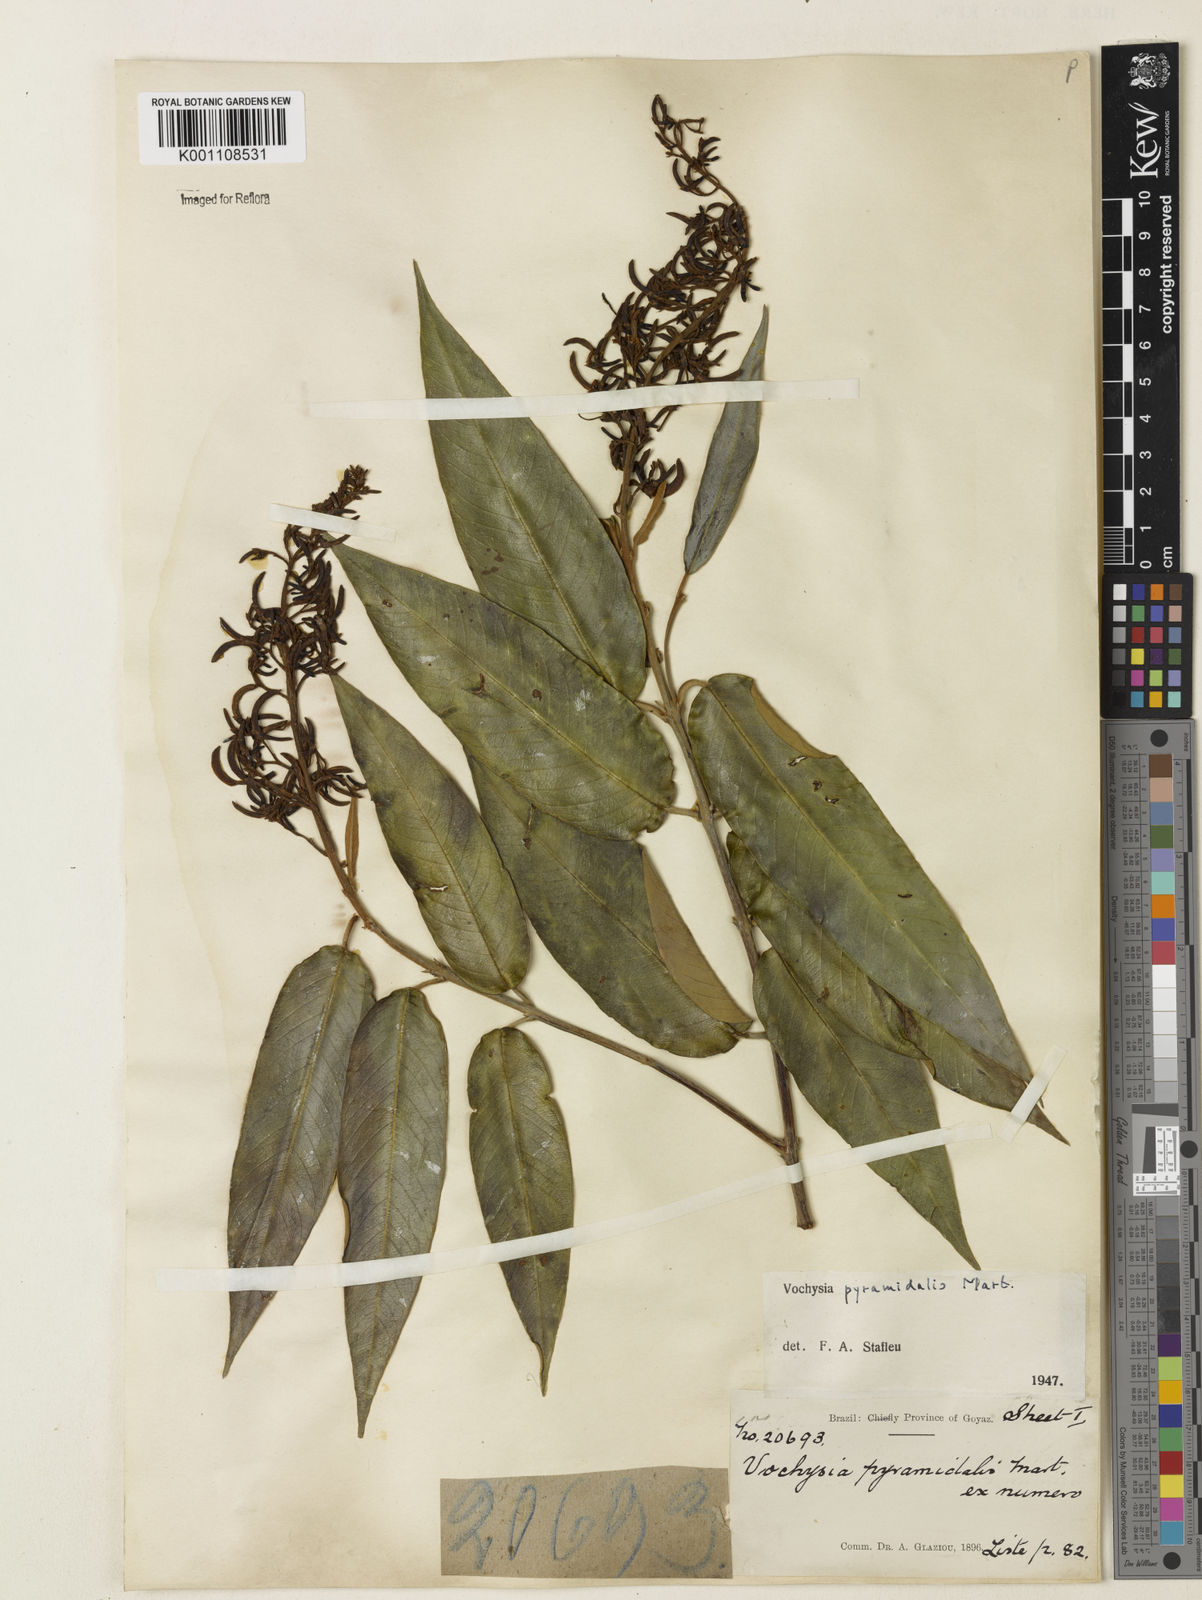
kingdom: Plantae
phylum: Tracheophyta
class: Magnoliopsida
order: Myrtales
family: Vochysiaceae
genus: Vochysia
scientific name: Vochysia pyramidalis
